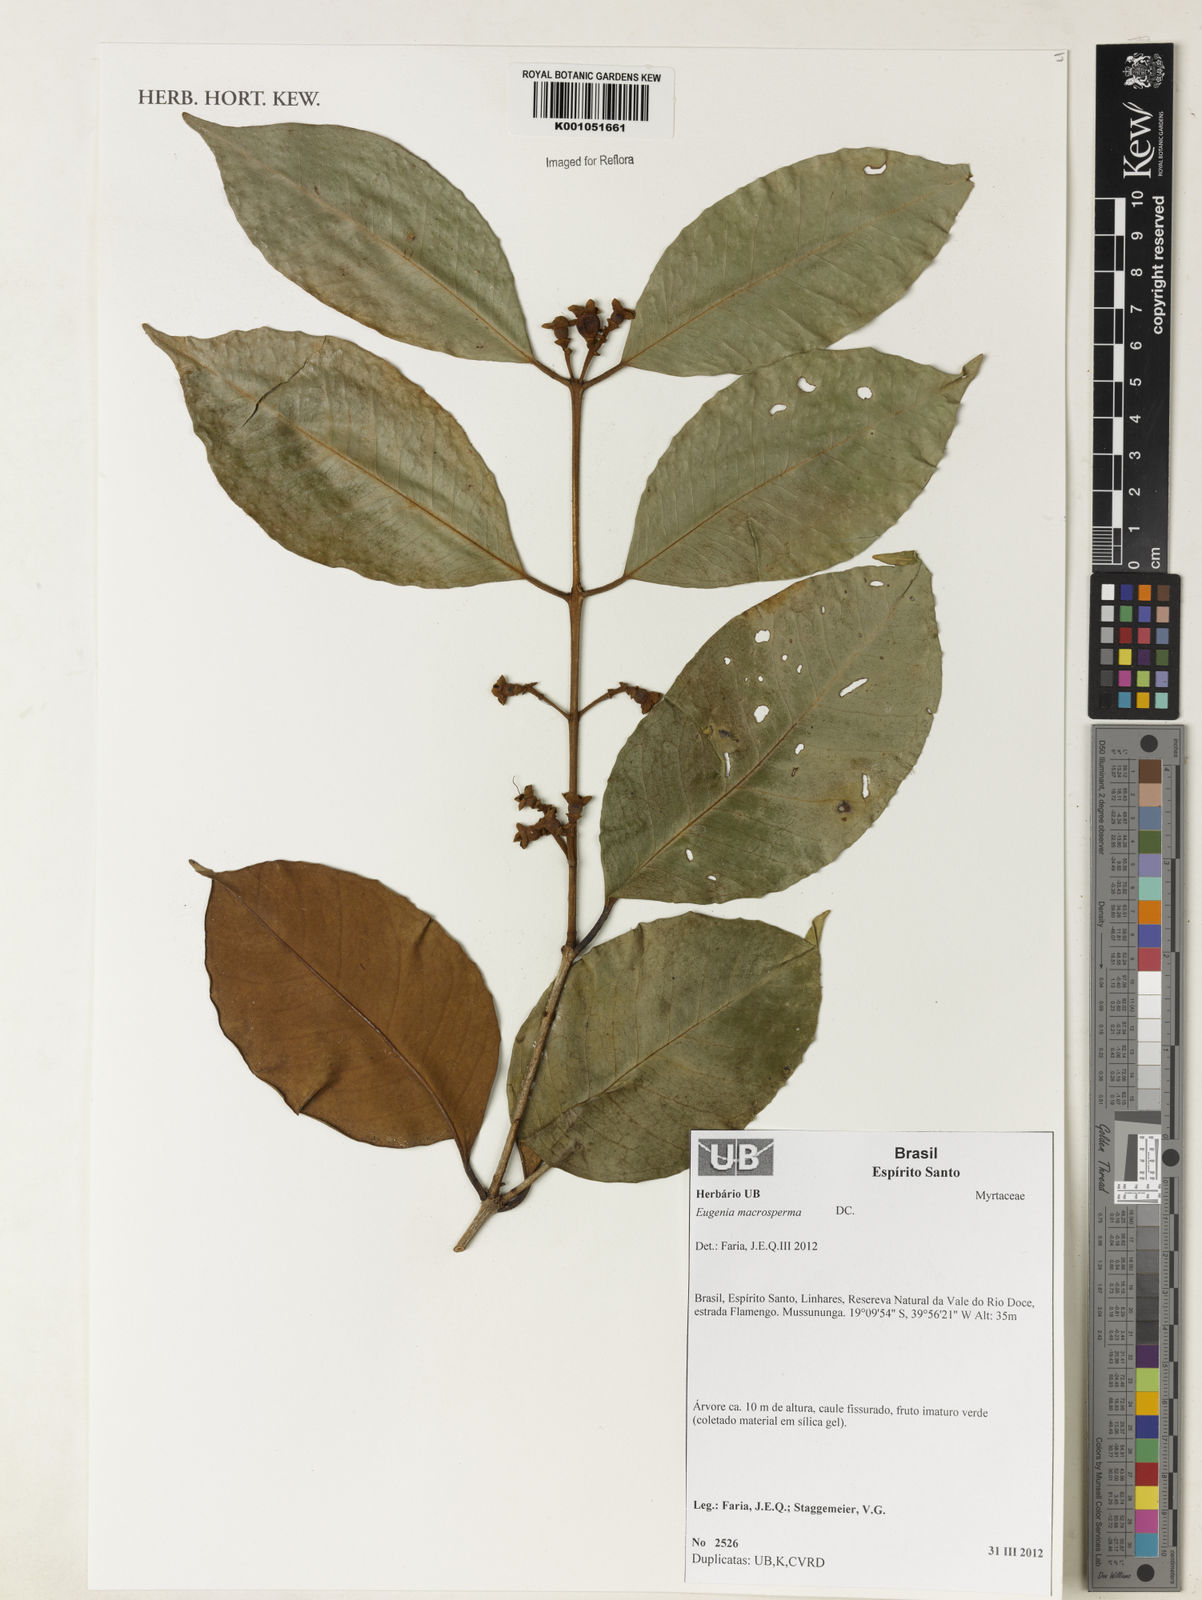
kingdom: Plantae
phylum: Tracheophyta
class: Magnoliopsida
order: Myrtales
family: Myrtaceae
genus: Eugenia
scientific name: Eugenia macrosperma
